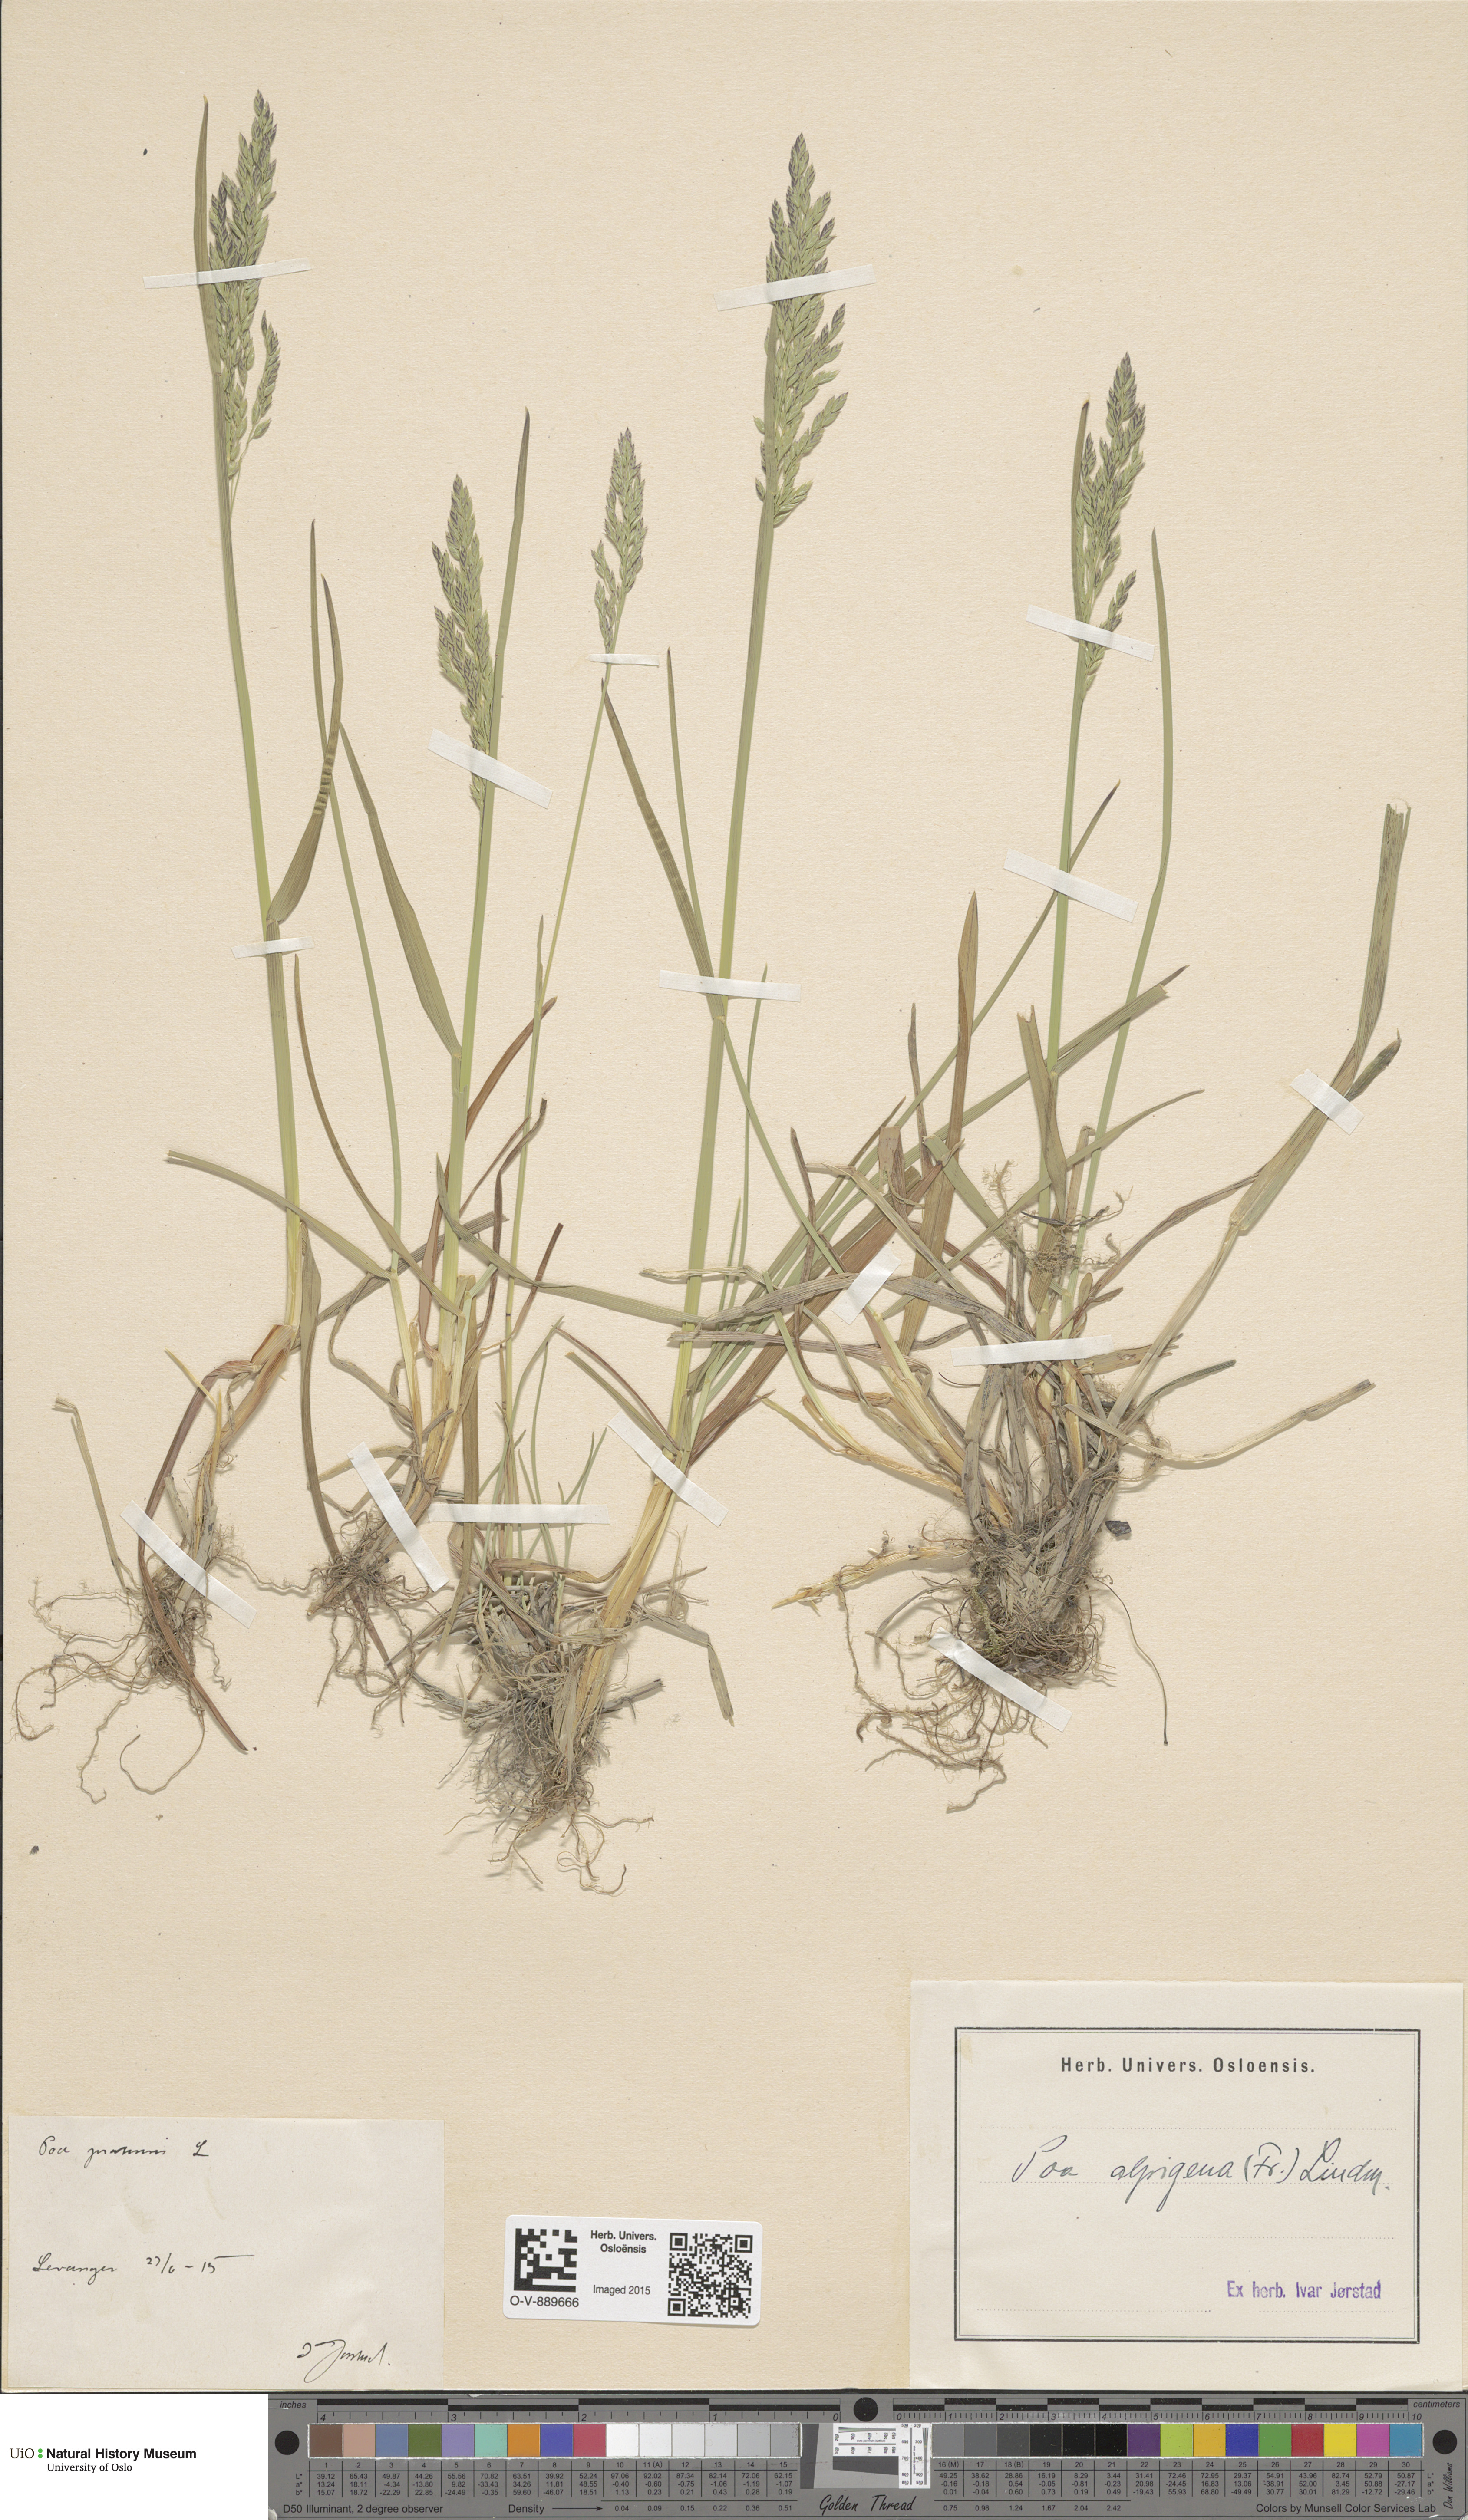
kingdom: Plantae
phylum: Tracheophyta
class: Liliopsida
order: Poales
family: Poaceae
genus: Poa
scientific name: Poa alpigena
